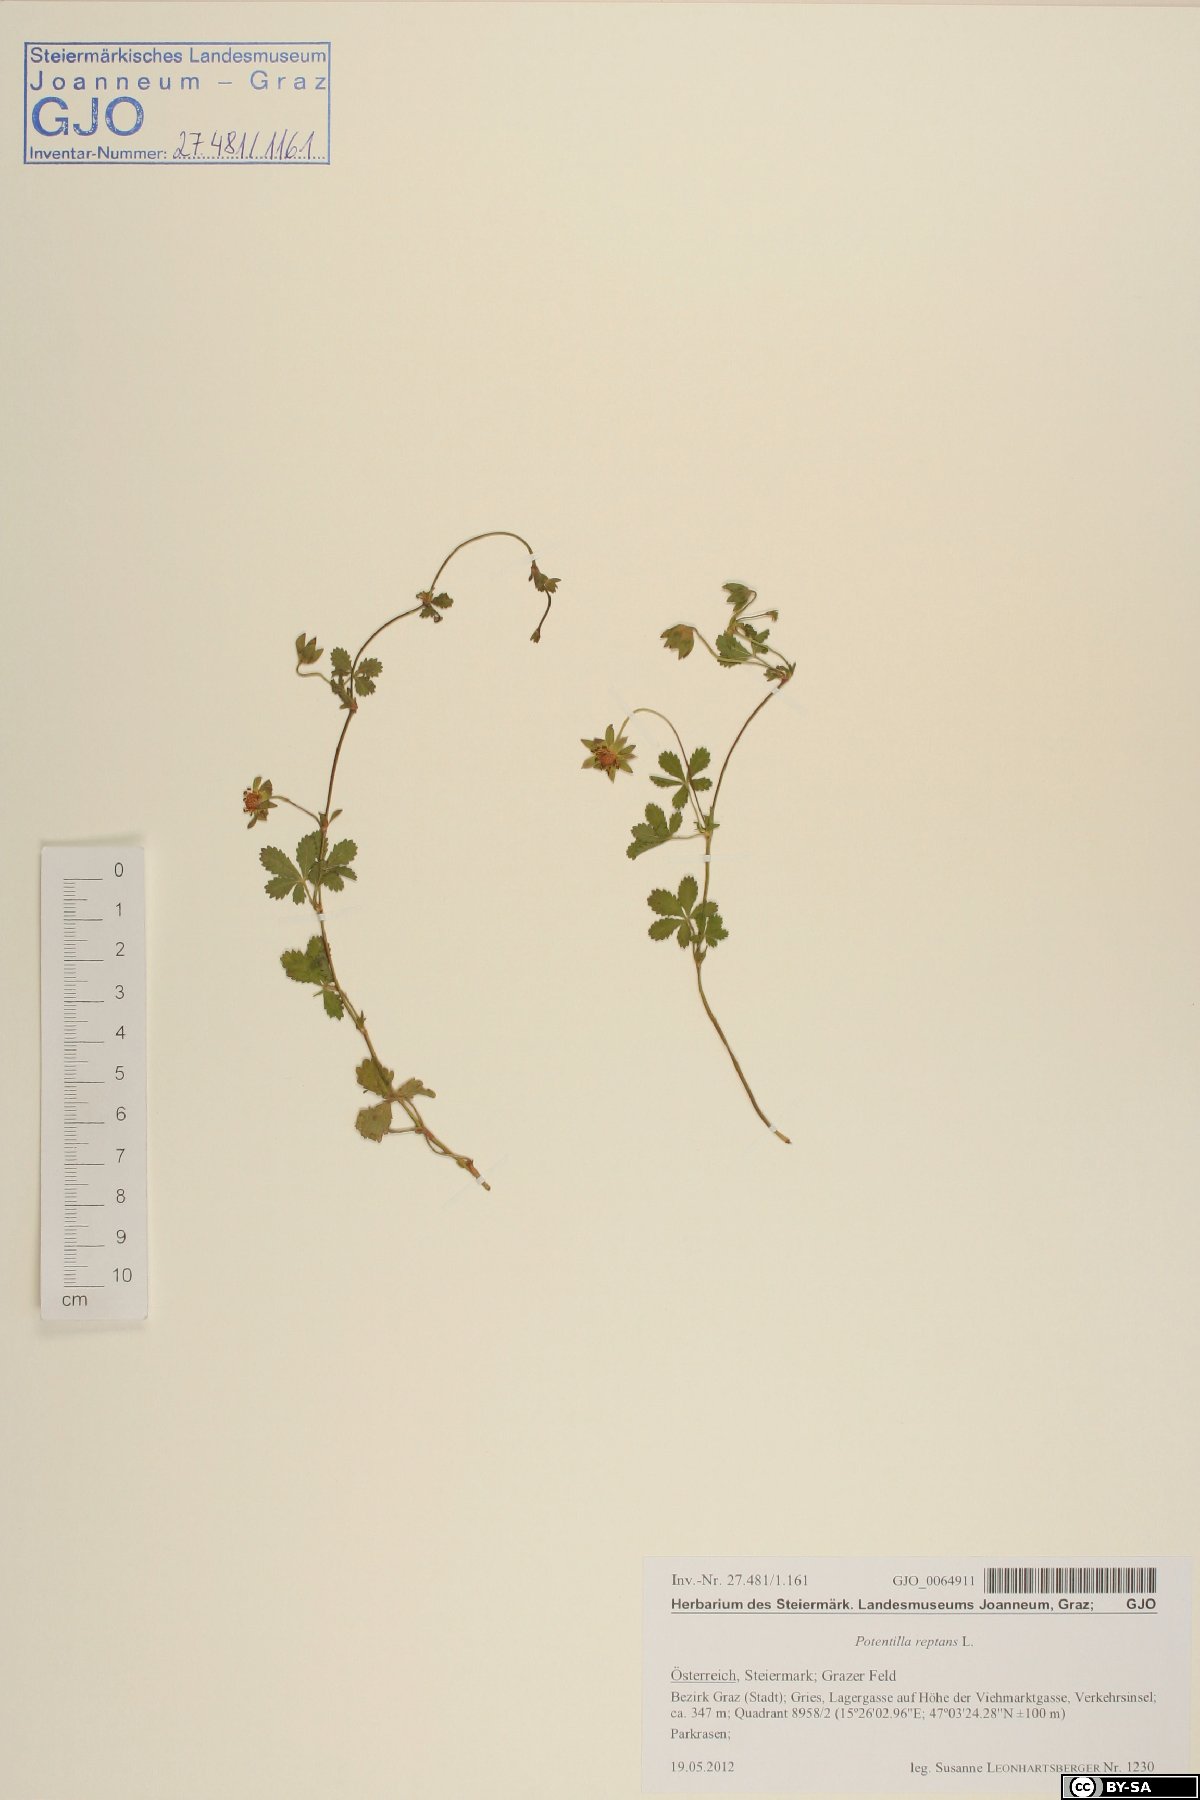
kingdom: Plantae
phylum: Tracheophyta
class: Magnoliopsida
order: Rosales
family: Rosaceae
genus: Potentilla
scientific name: Potentilla reptans
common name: Creeping cinquefoil
